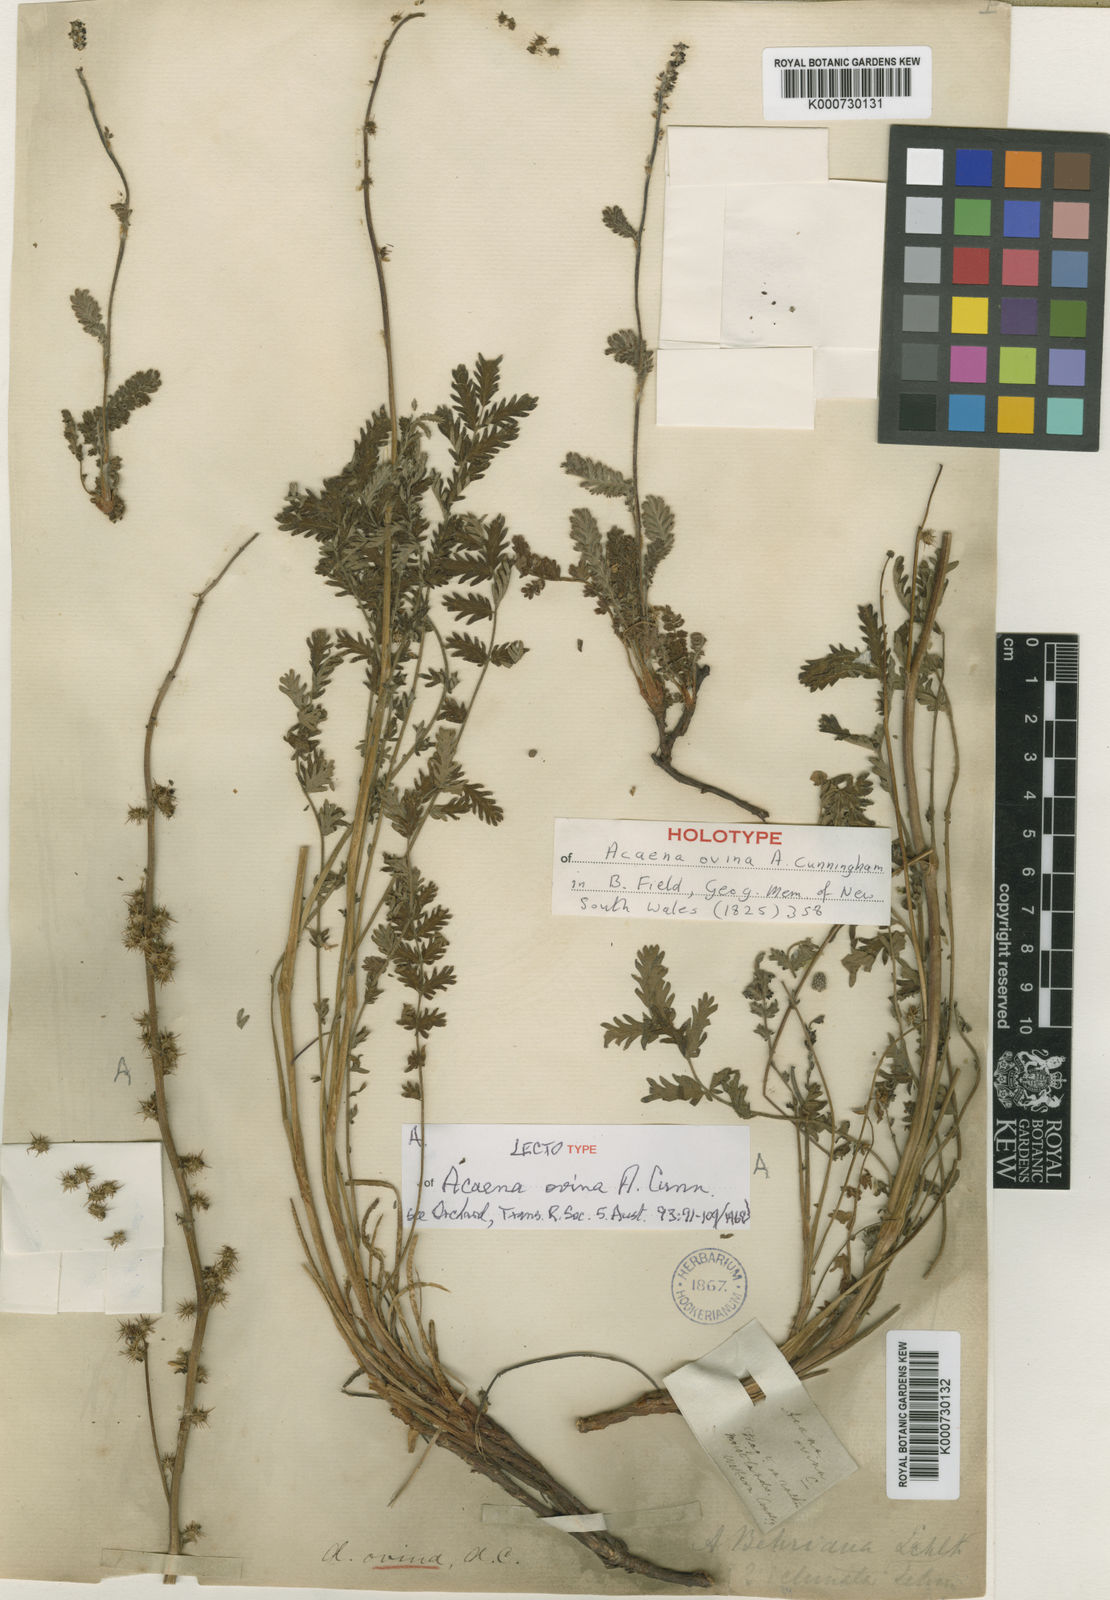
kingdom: Plantae
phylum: Tracheophyta
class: Magnoliopsida
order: Rosales
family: Rosaceae
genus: Acaena
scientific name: Acaena ovina
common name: Hairy sheepbur
